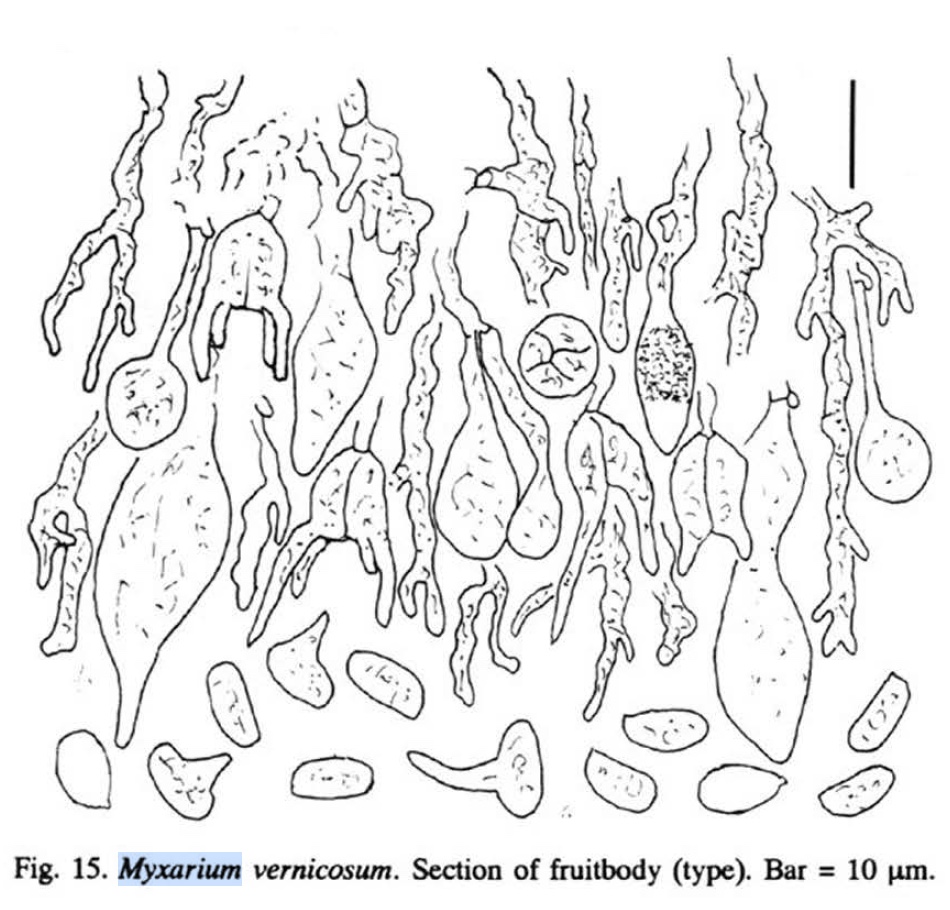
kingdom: Fungi
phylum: Basidiomycota
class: Agaricomycetes
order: Auriculariales
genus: Stypella
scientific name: Stypella grilletii
